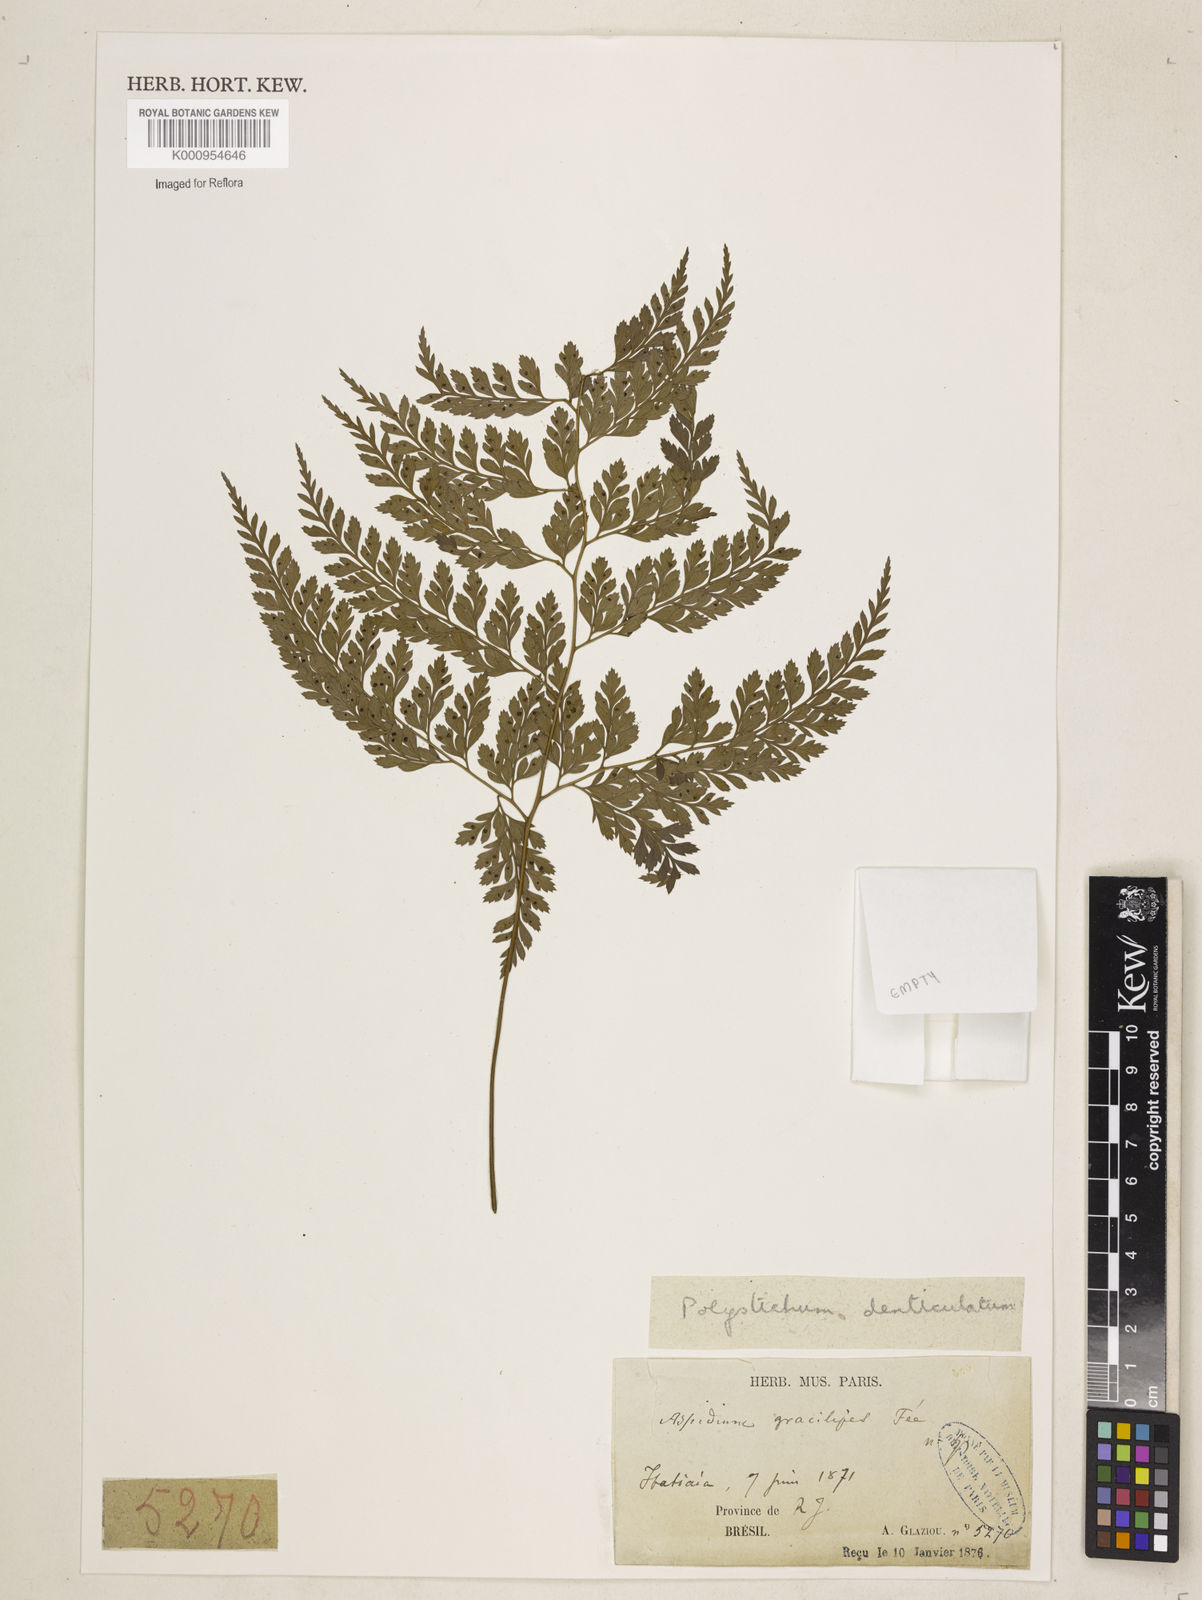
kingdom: Plantae
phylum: Tracheophyta
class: Polypodiopsida
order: Polypodiales
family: Dryopteridaceae
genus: Arachniodes
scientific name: Arachniodes denticulata
